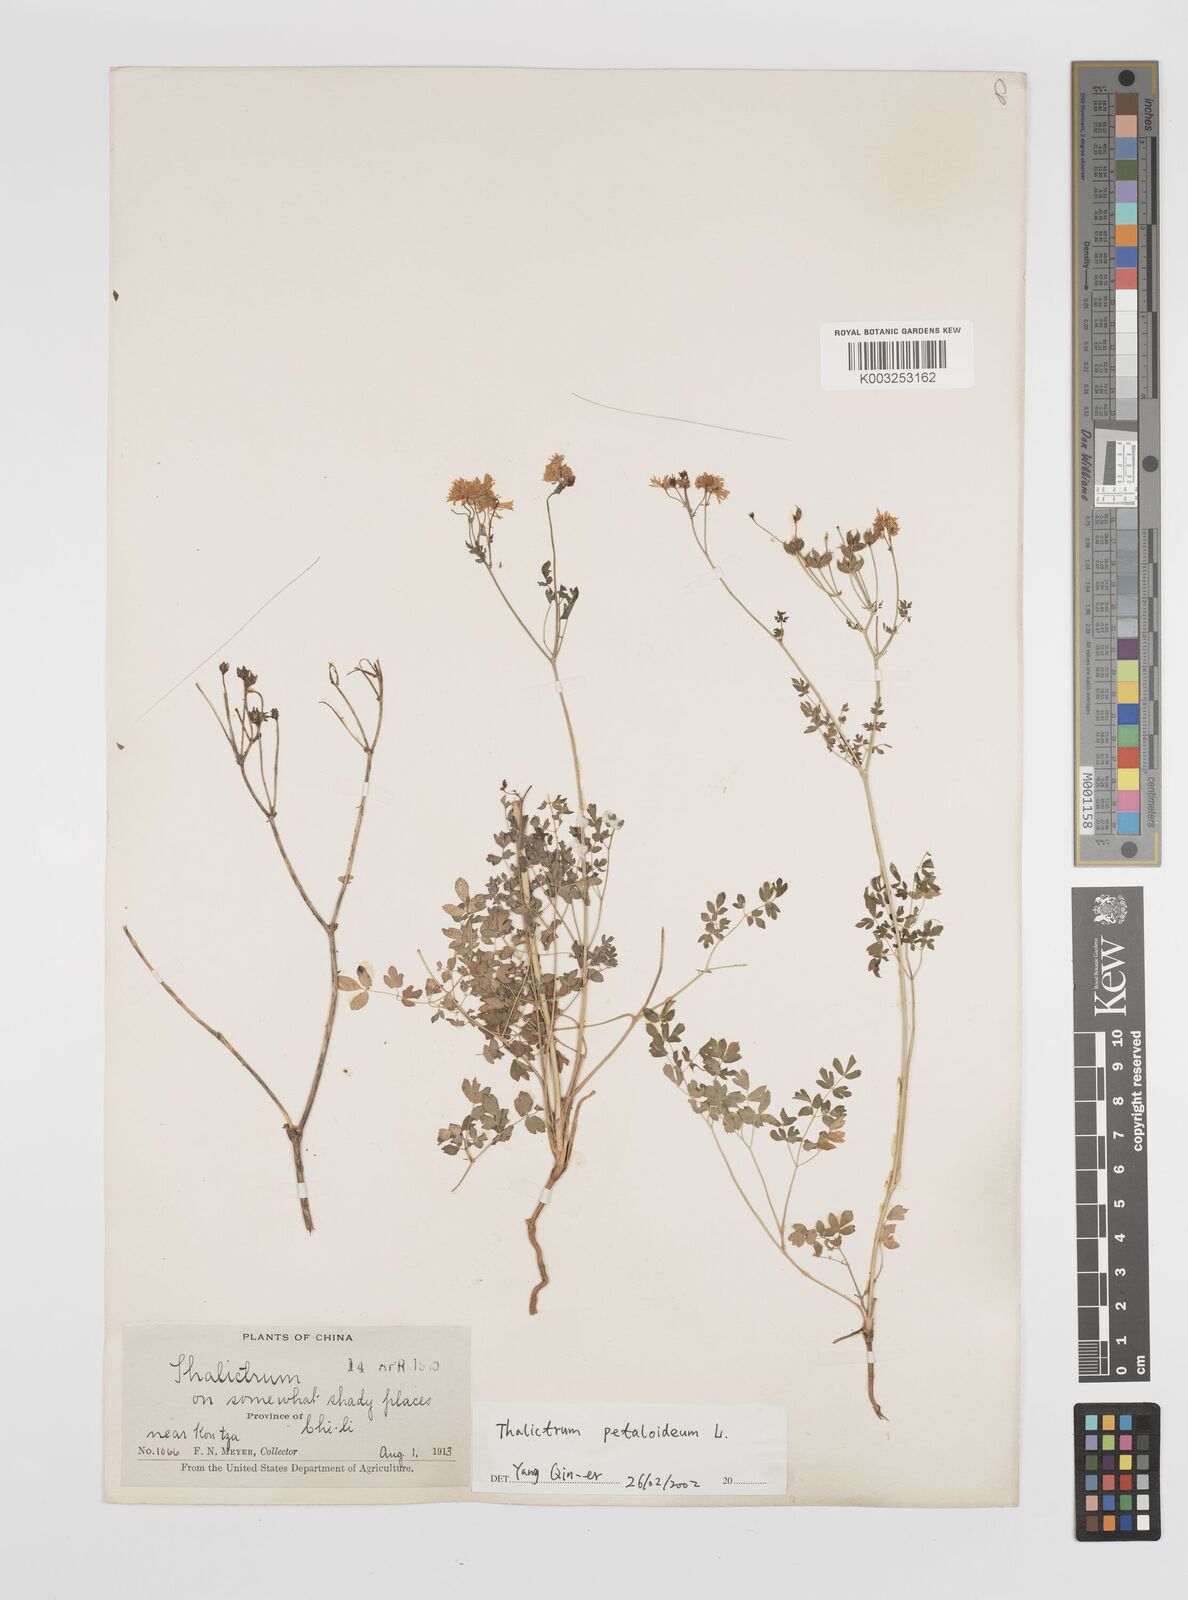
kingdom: Plantae
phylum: Tracheophyta
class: Magnoliopsida
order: Ranunculales
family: Ranunculaceae
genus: Thalictrum
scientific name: Thalictrum petaloideum
